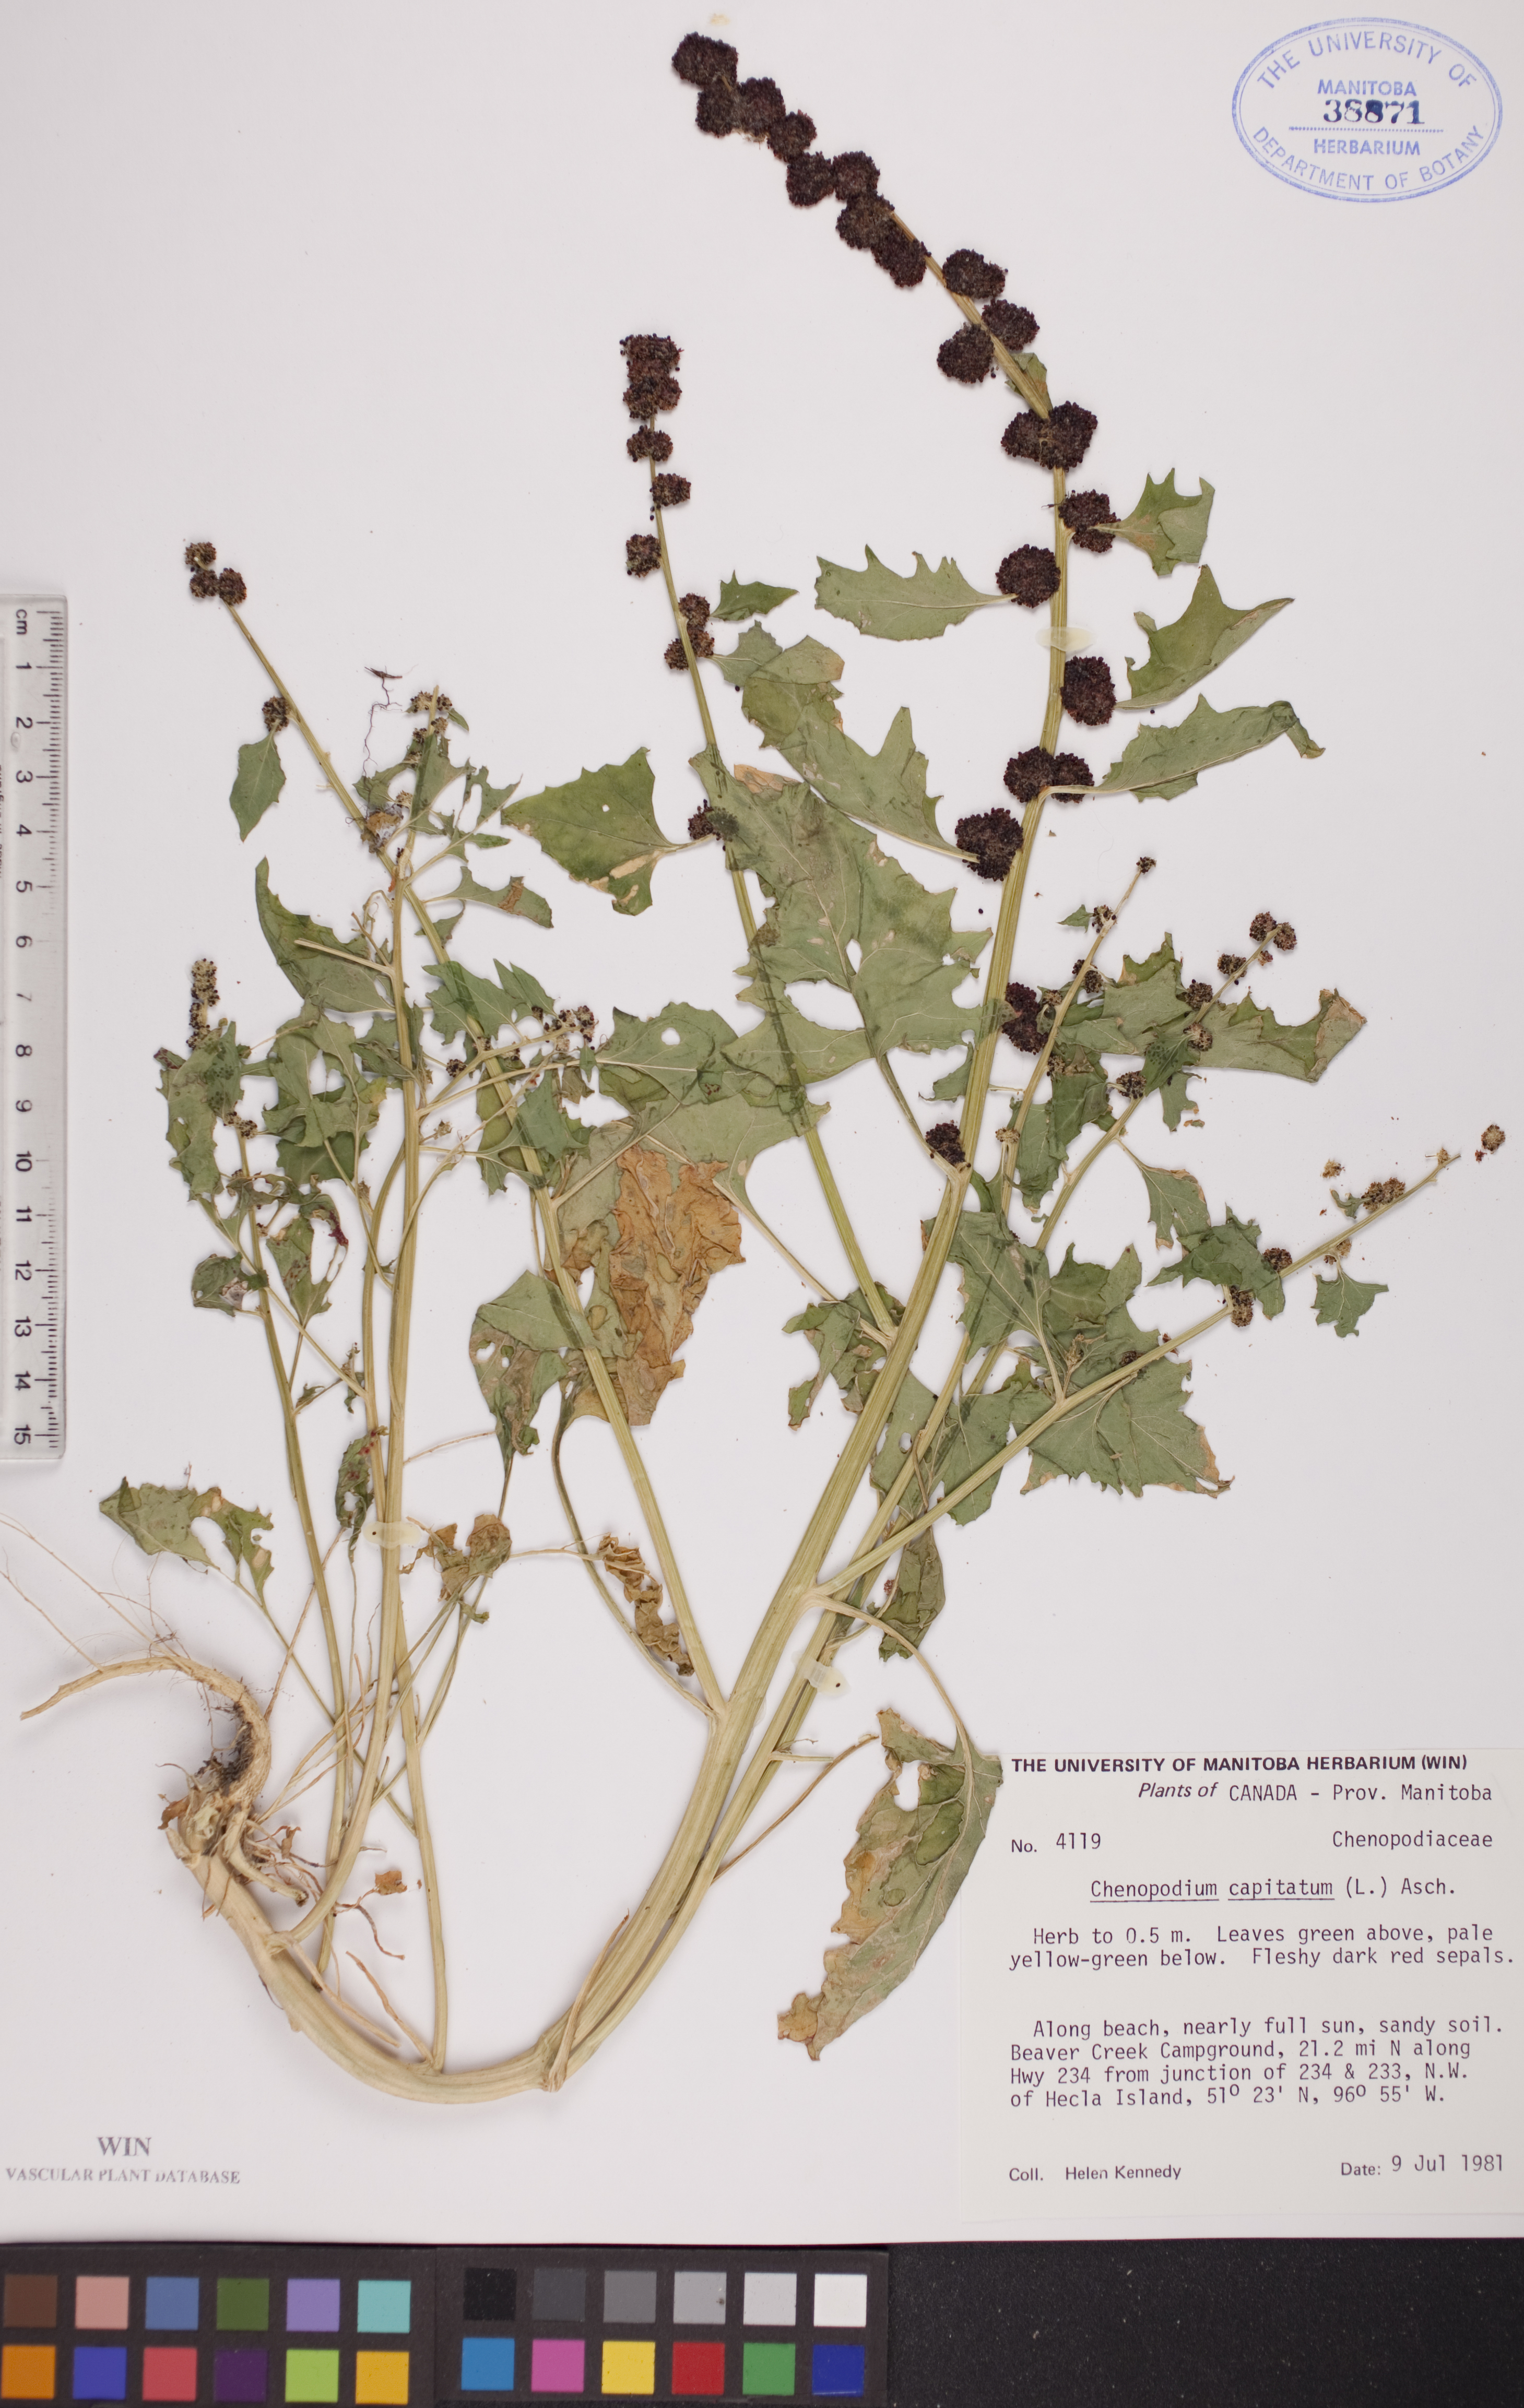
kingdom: Plantae
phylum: Tracheophyta
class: Magnoliopsida
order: Caryophyllales
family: Amaranthaceae
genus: Blitum
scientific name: Blitum capitatum
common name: Strawberry-blight
